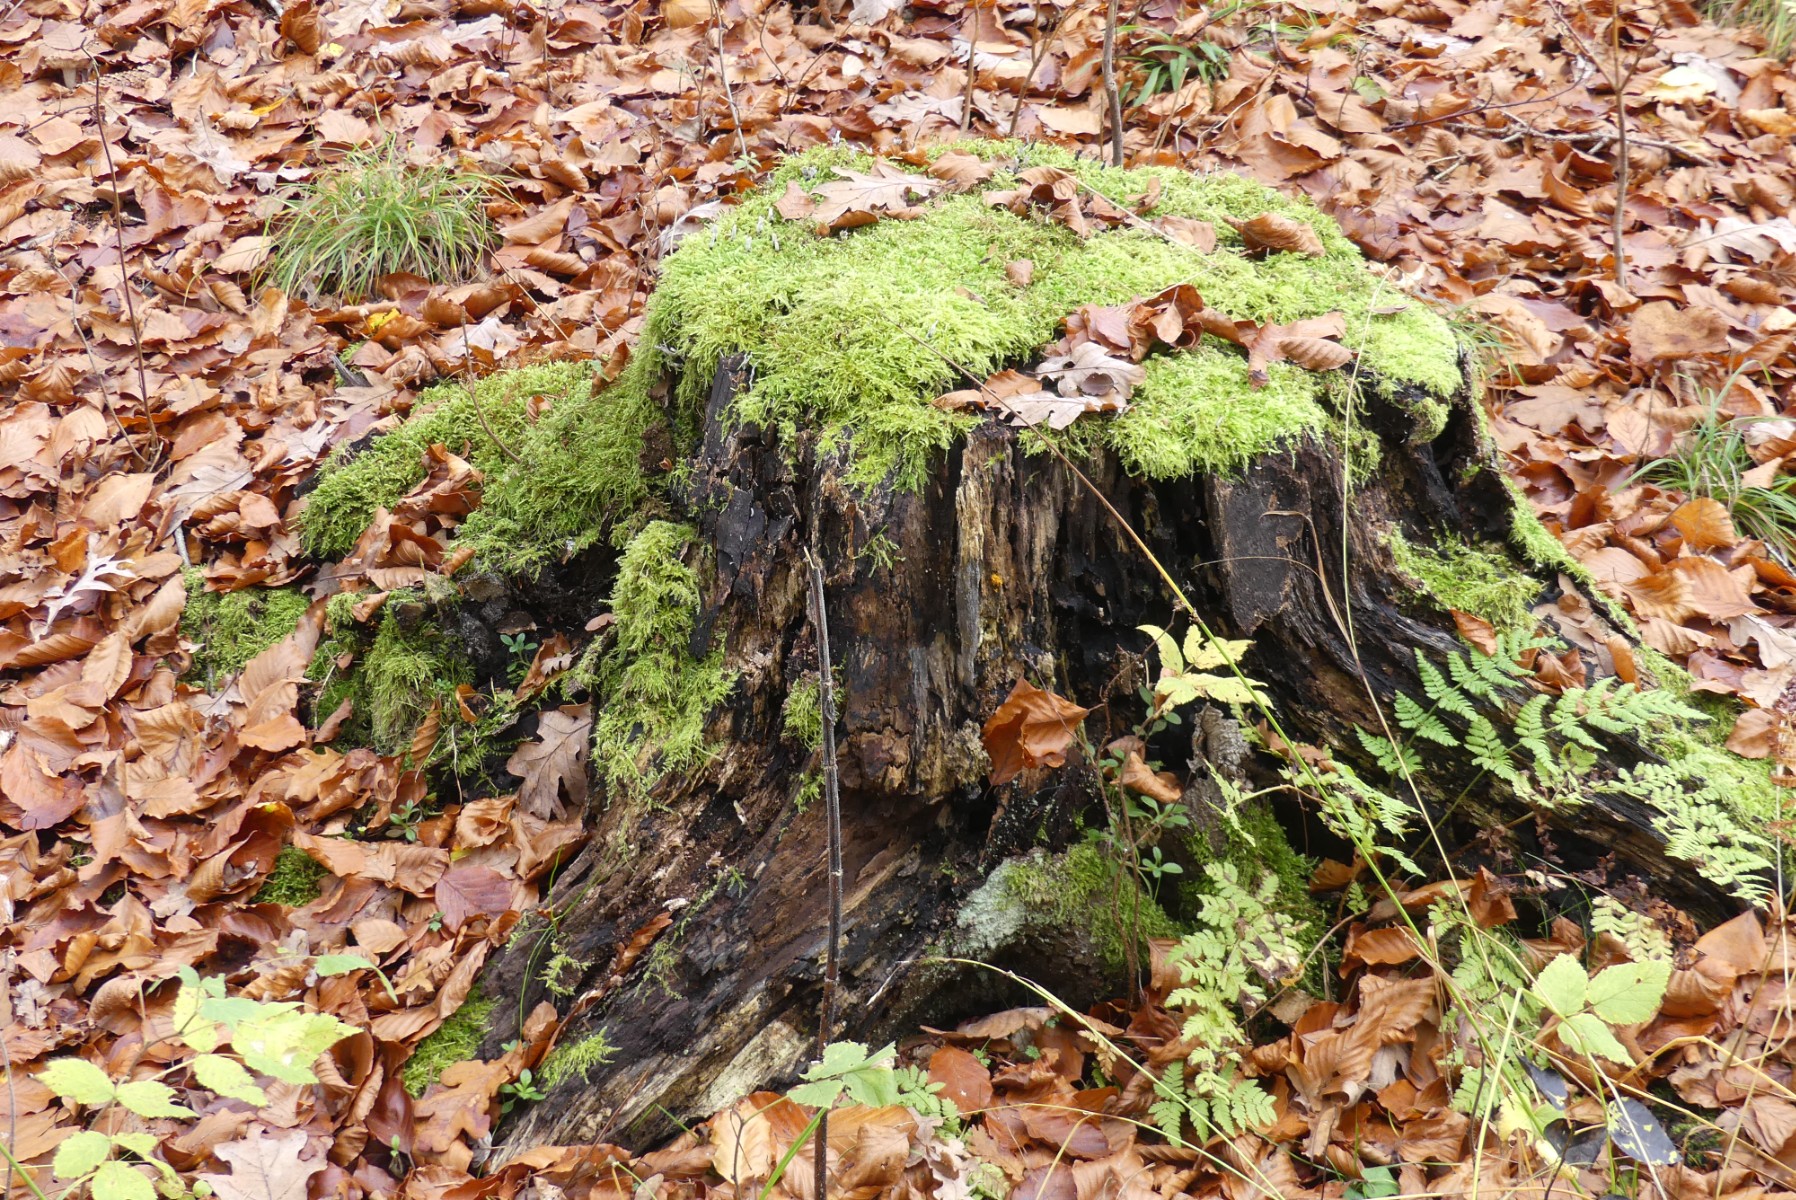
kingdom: Fungi
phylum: Basidiomycota
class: Dacrymycetes
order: Dacrymycetales
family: Dacrymycetaceae
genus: Calocera
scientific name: Calocera cornea
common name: liden guldgaffel
